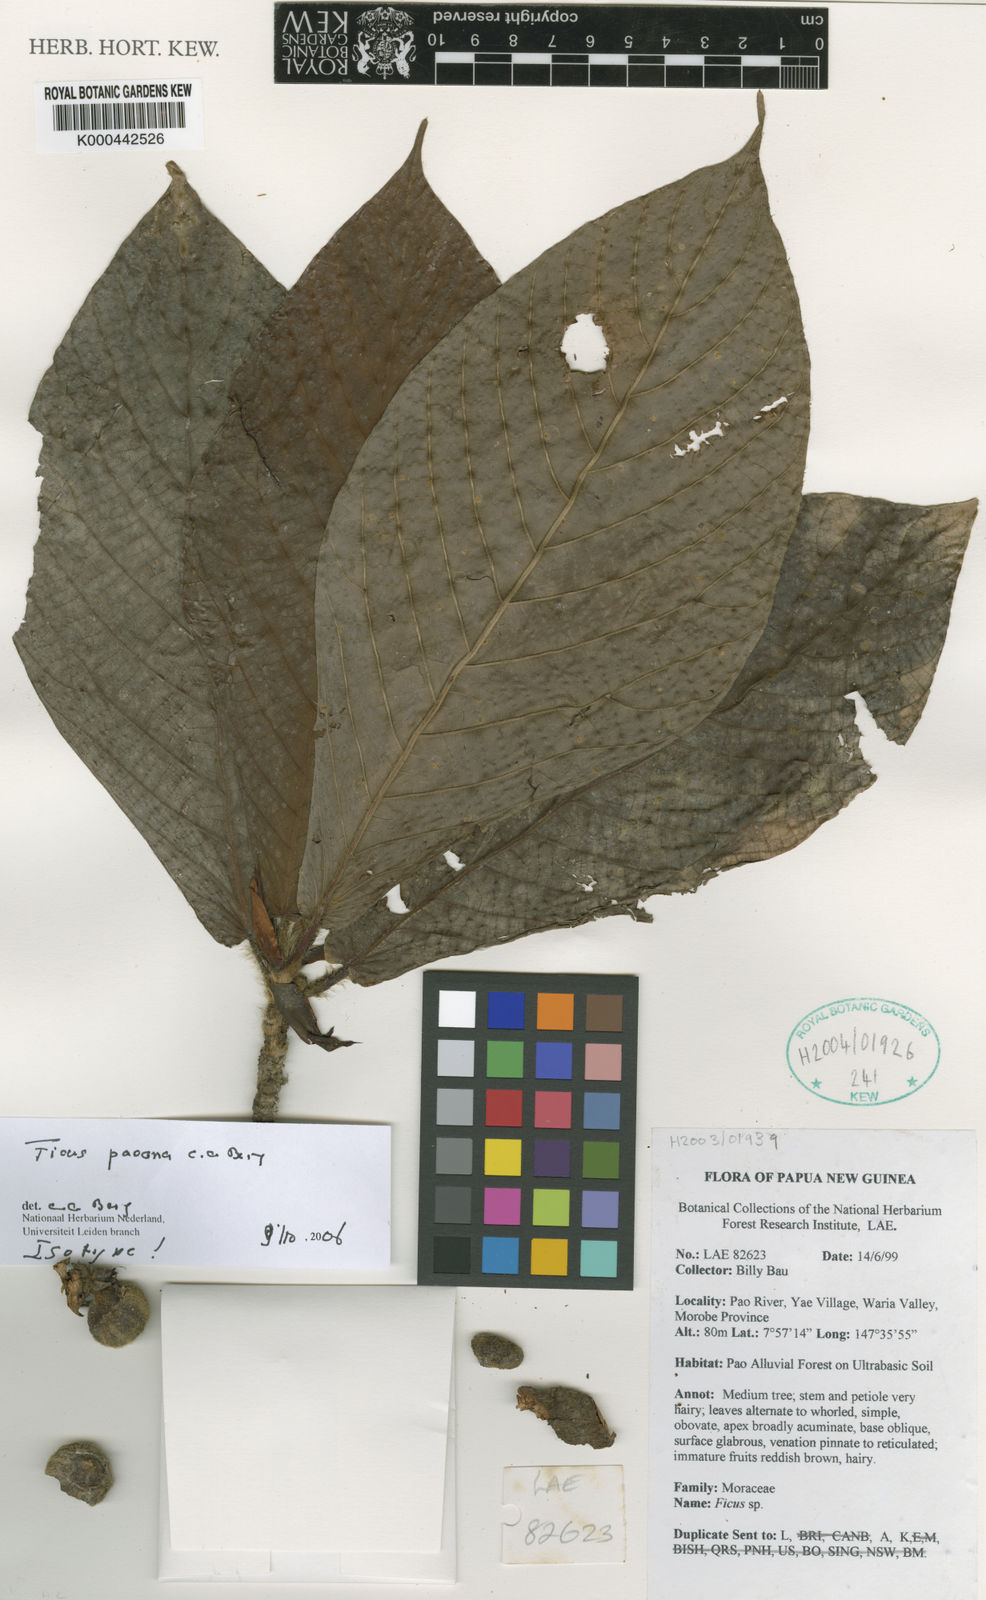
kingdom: Plantae
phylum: Tracheophyta
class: Magnoliopsida
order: Rosales
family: Moraceae
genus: Ficus
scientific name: Ficus paoana
